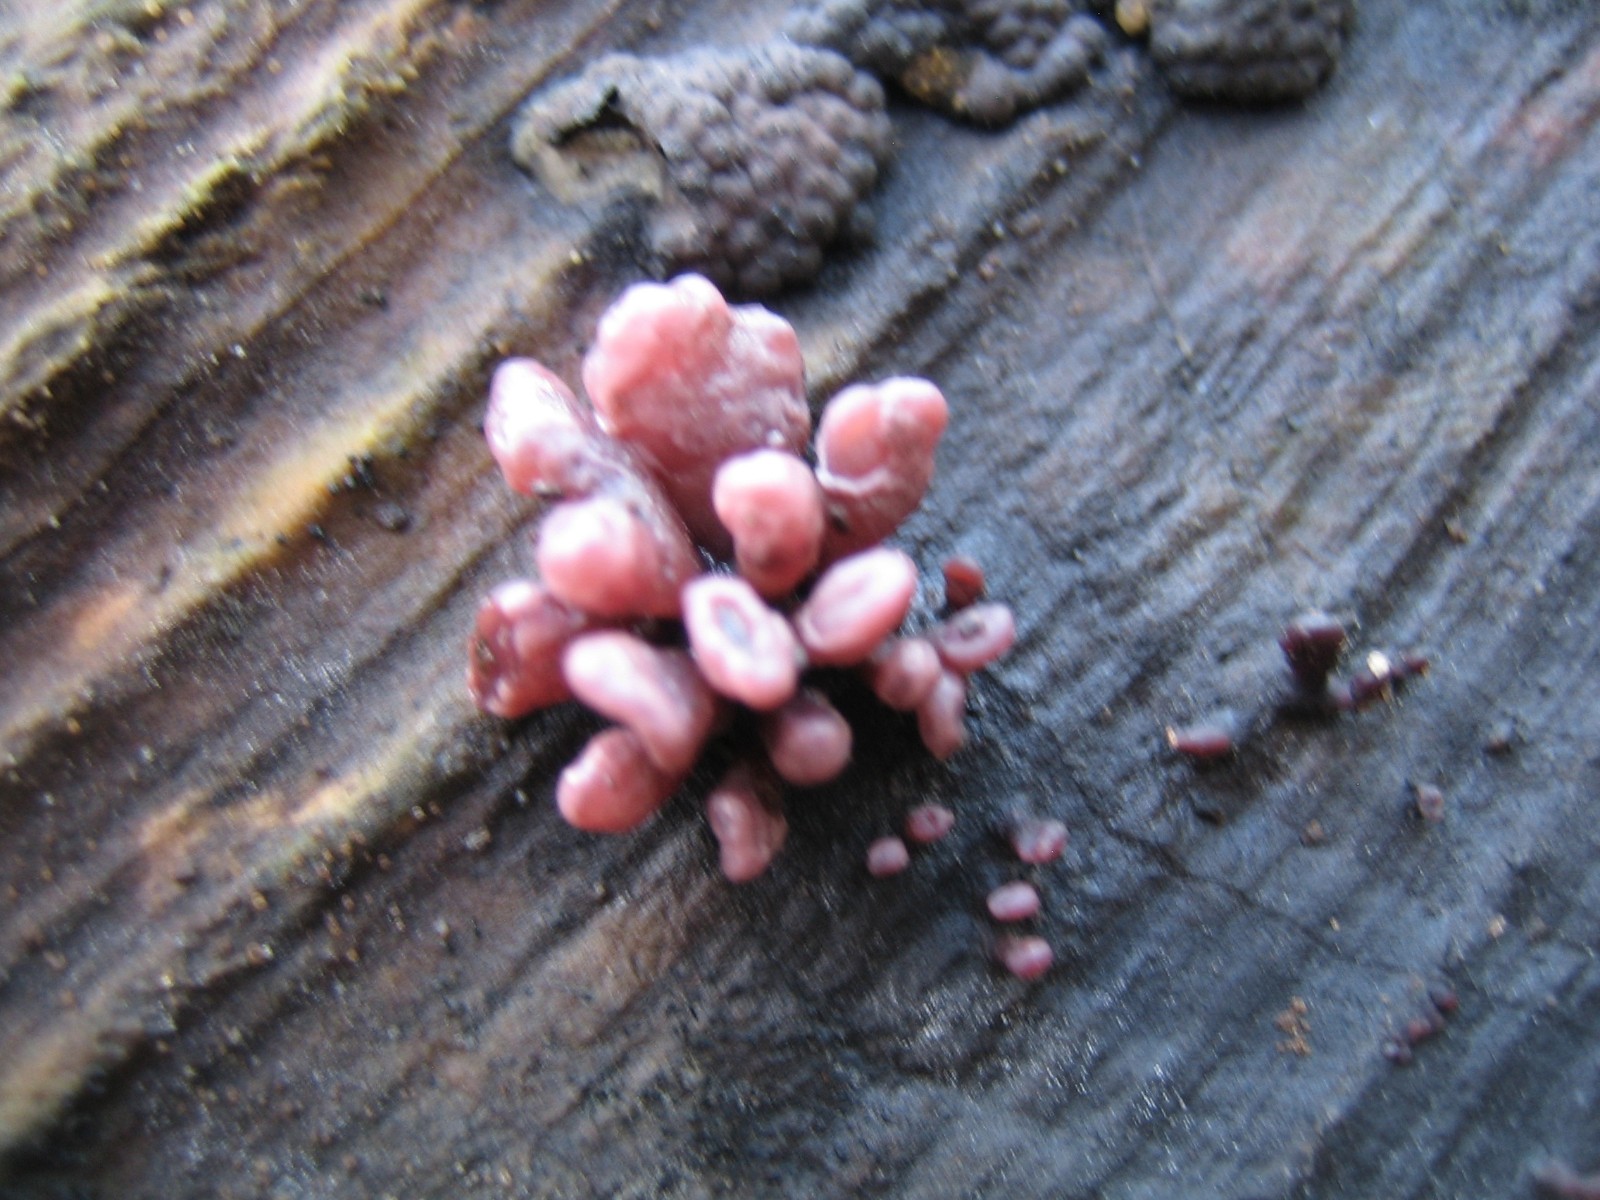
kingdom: Fungi
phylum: Ascomycota
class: Leotiomycetes
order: Helotiales
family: Gelatinodiscaceae
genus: Ascocoryne
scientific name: Ascocoryne sarcoides
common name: rødlilla sejskive
